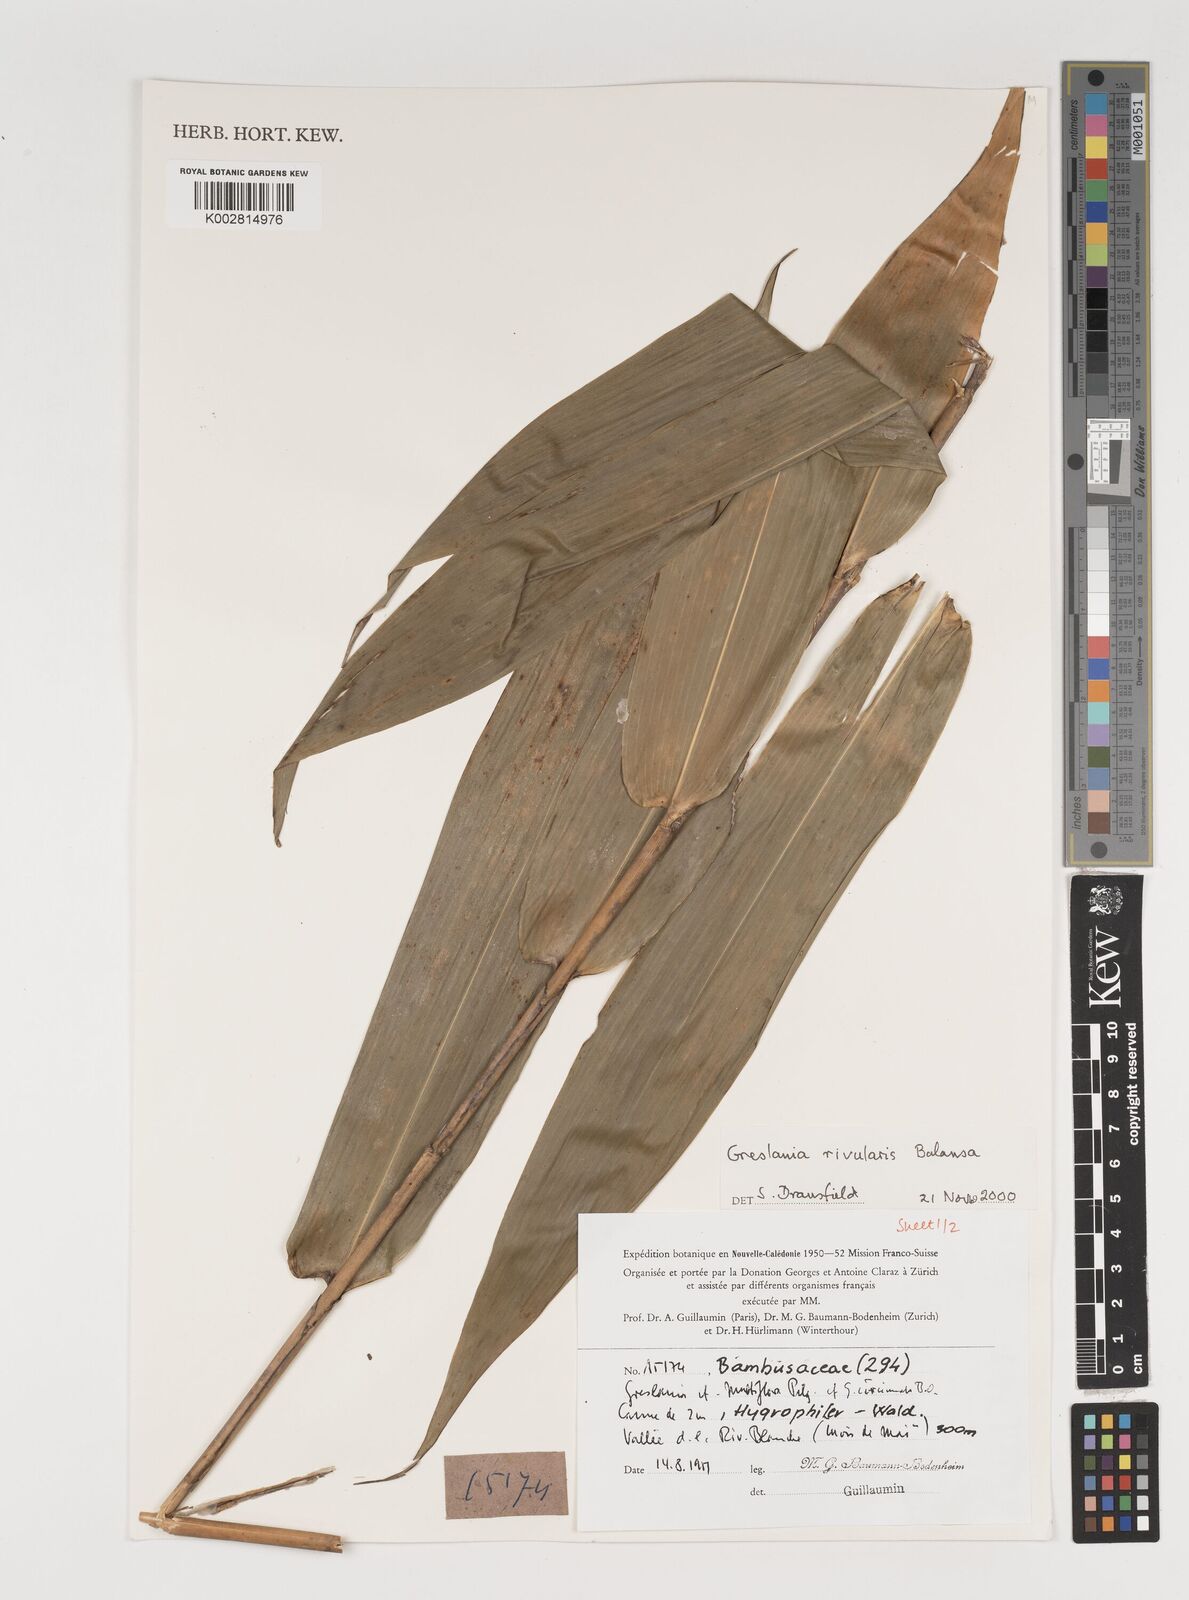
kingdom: Plantae
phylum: Tracheophyta
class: Liliopsida
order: Poales
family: Poaceae
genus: Greslania
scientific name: Greslania rivularis
